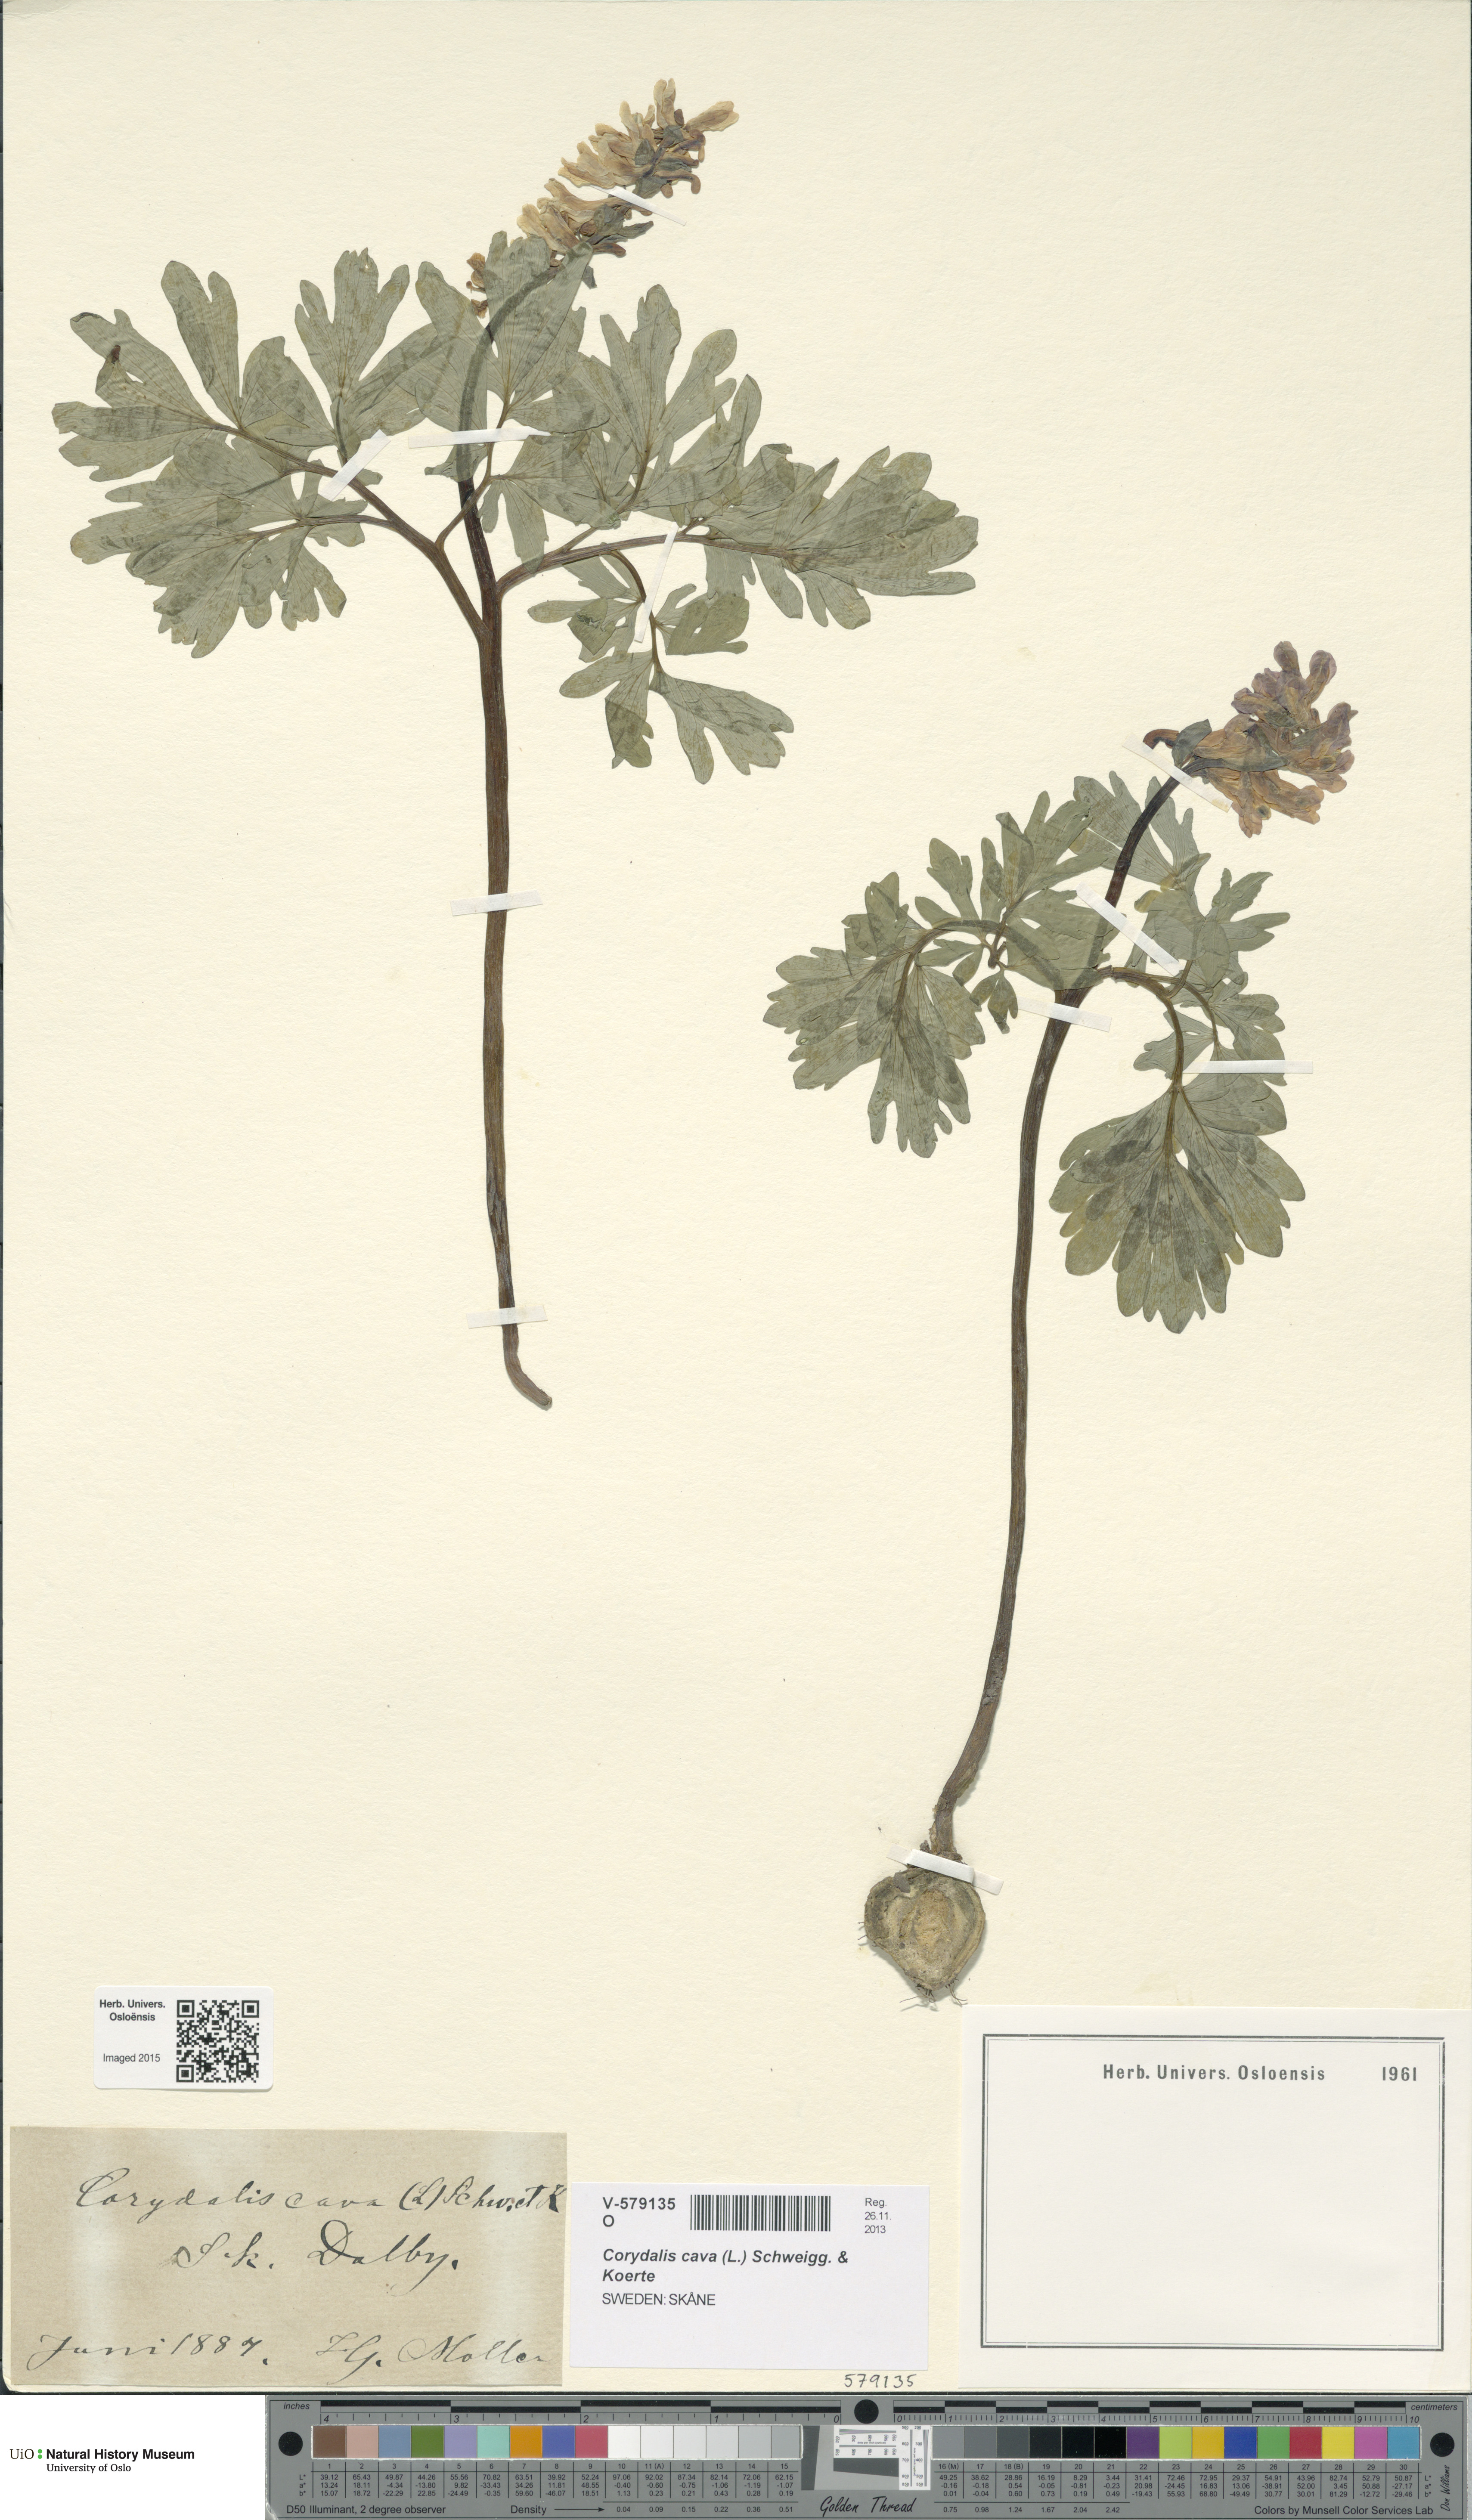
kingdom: Plantae
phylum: Tracheophyta
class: Magnoliopsida
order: Ranunculales
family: Papaveraceae
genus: Corydalis
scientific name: Corydalis cava
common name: Hollowroot
